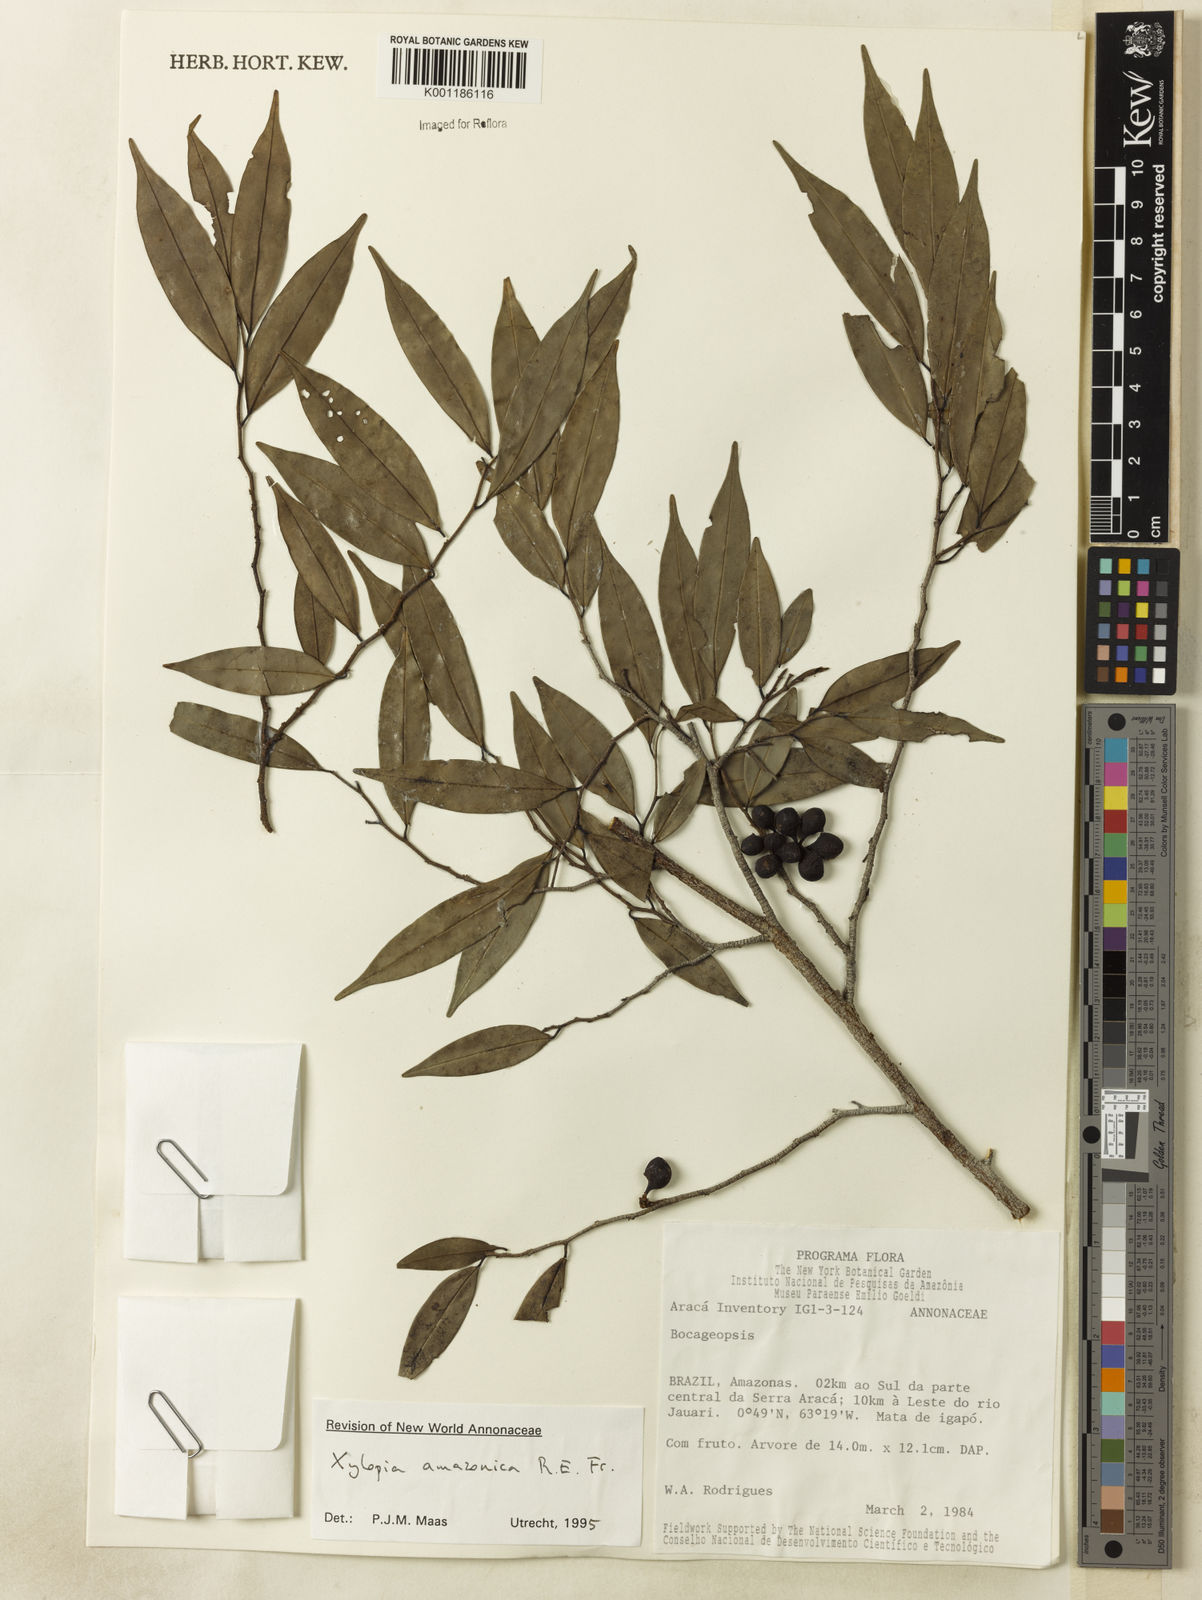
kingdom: Plantae
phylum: Tracheophyta
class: Magnoliopsida
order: Magnoliales
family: Annonaceae
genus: Xylopia
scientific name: Xylopia amazonica
